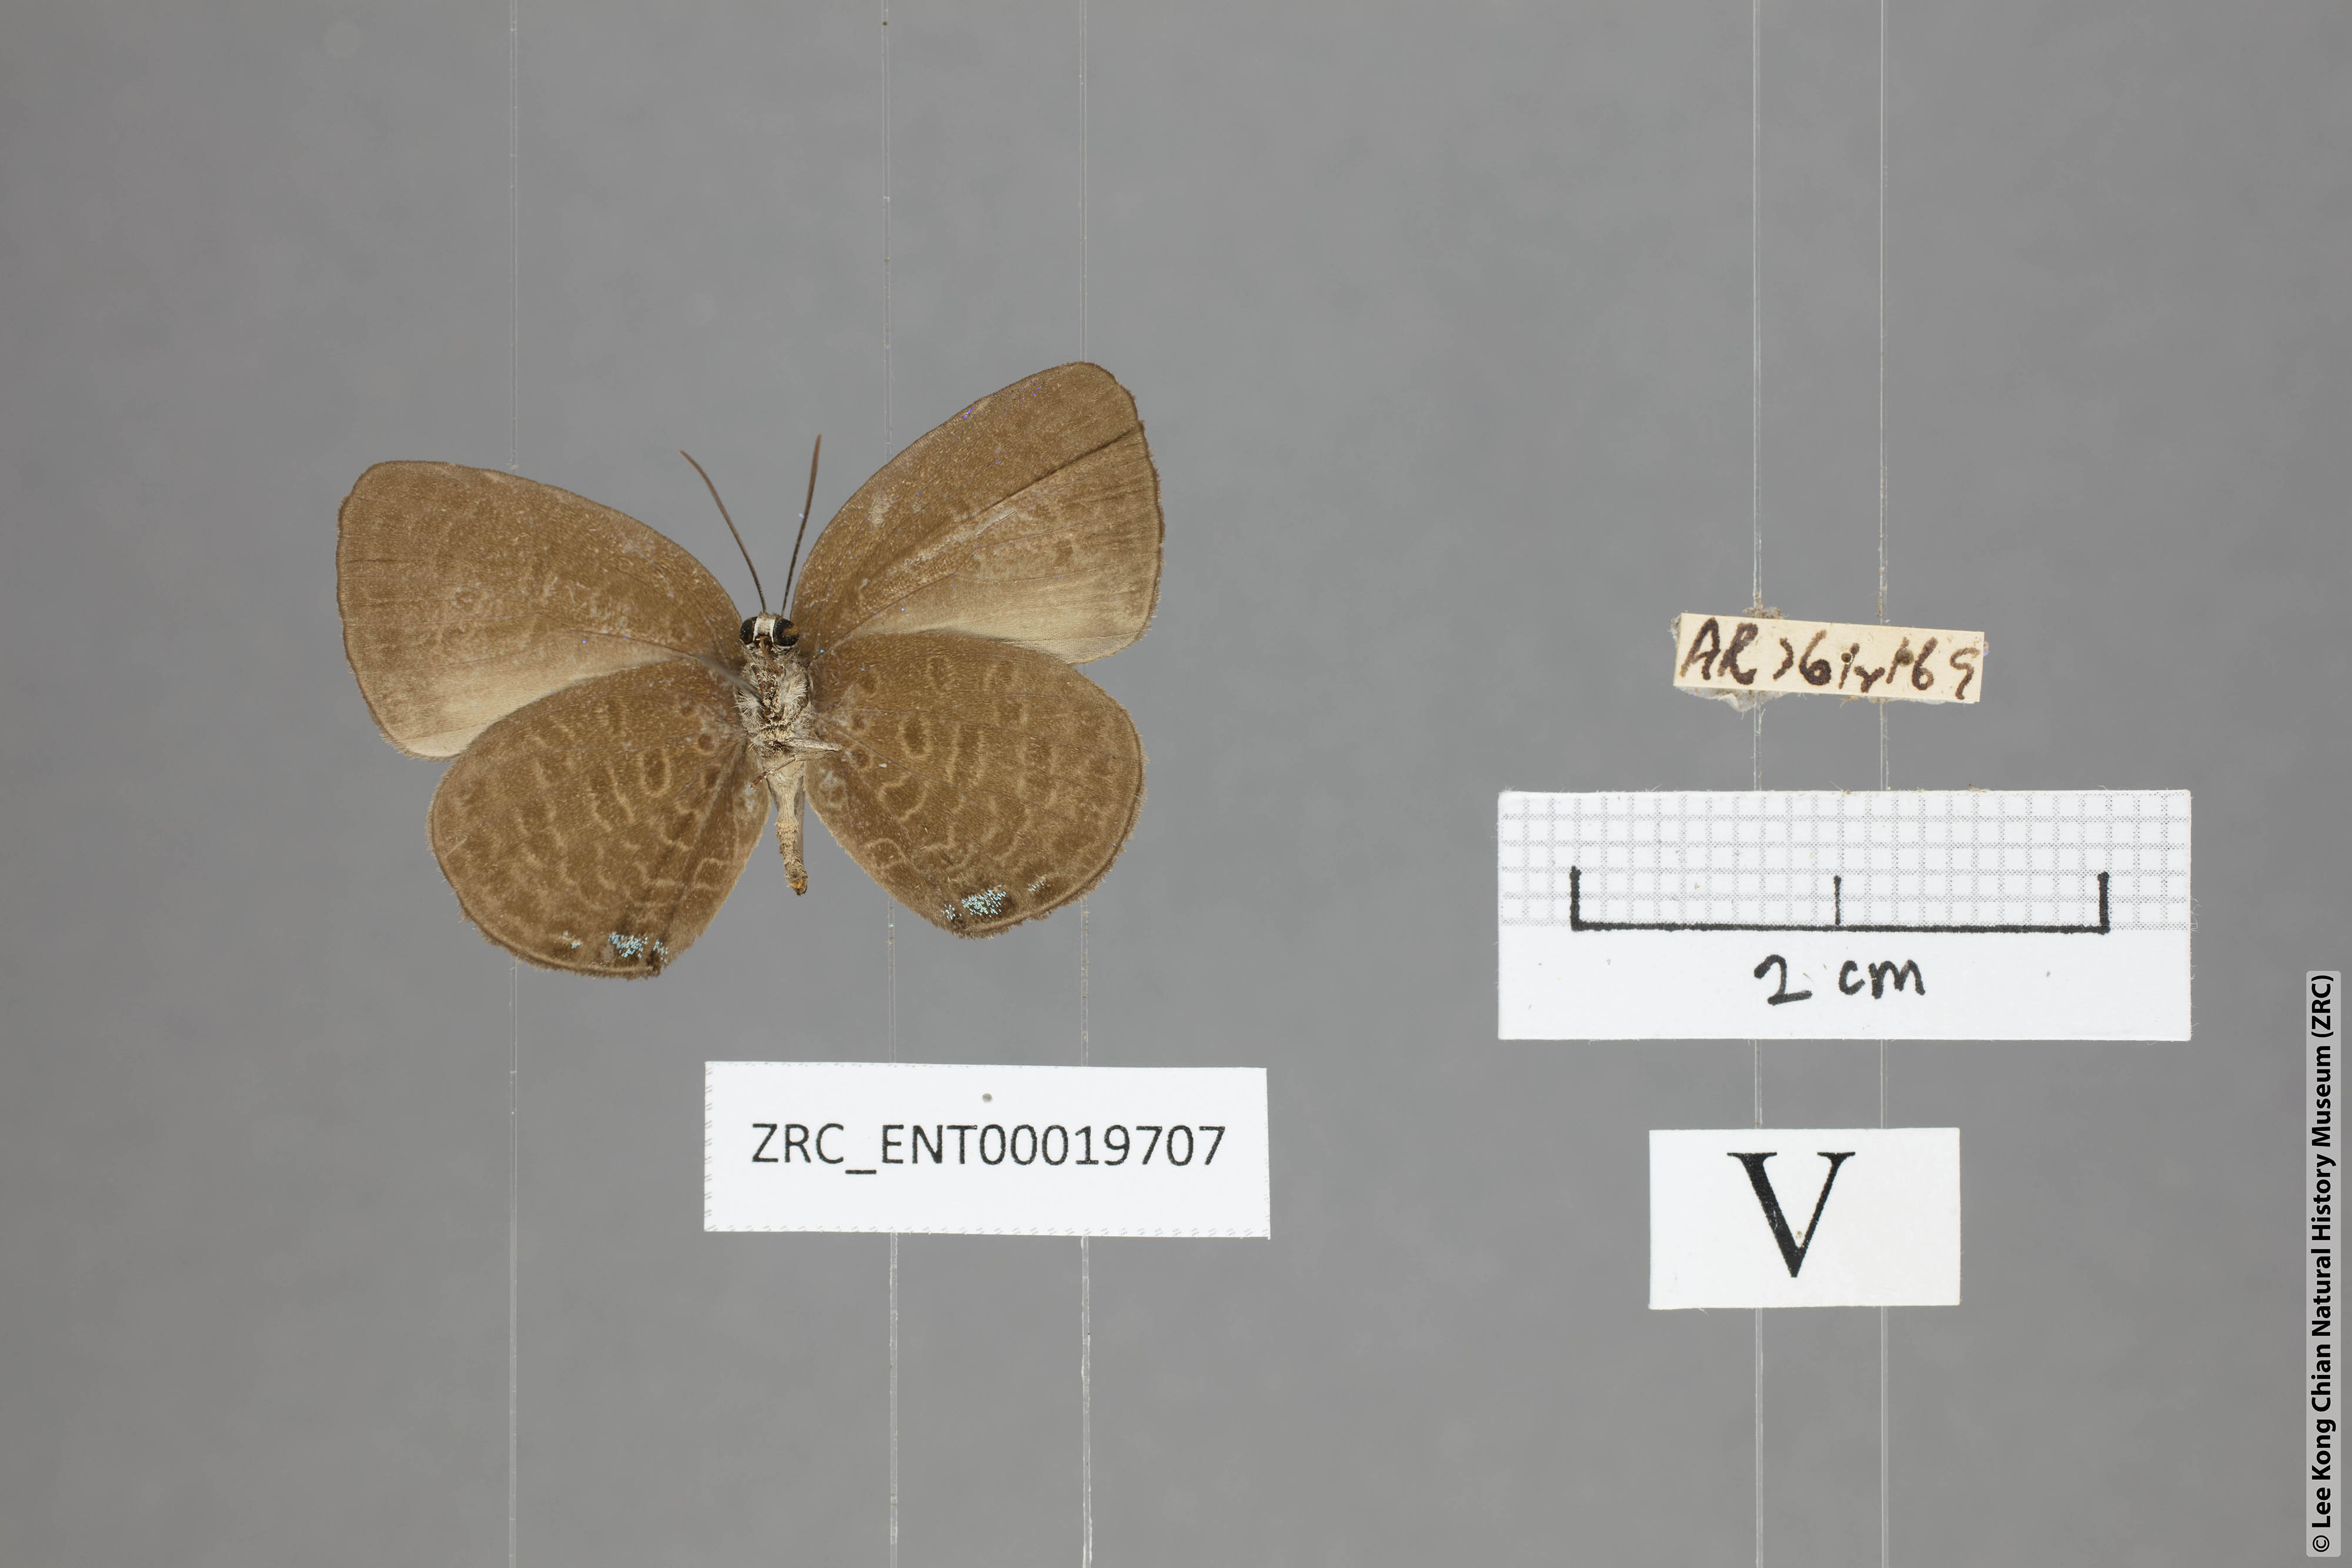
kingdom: Animalia
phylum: Arthropoda
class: Insecta
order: Lepidoptera
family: Lycaenidae
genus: Arhopala
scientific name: Arhopala muta
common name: Mutal oakblue
